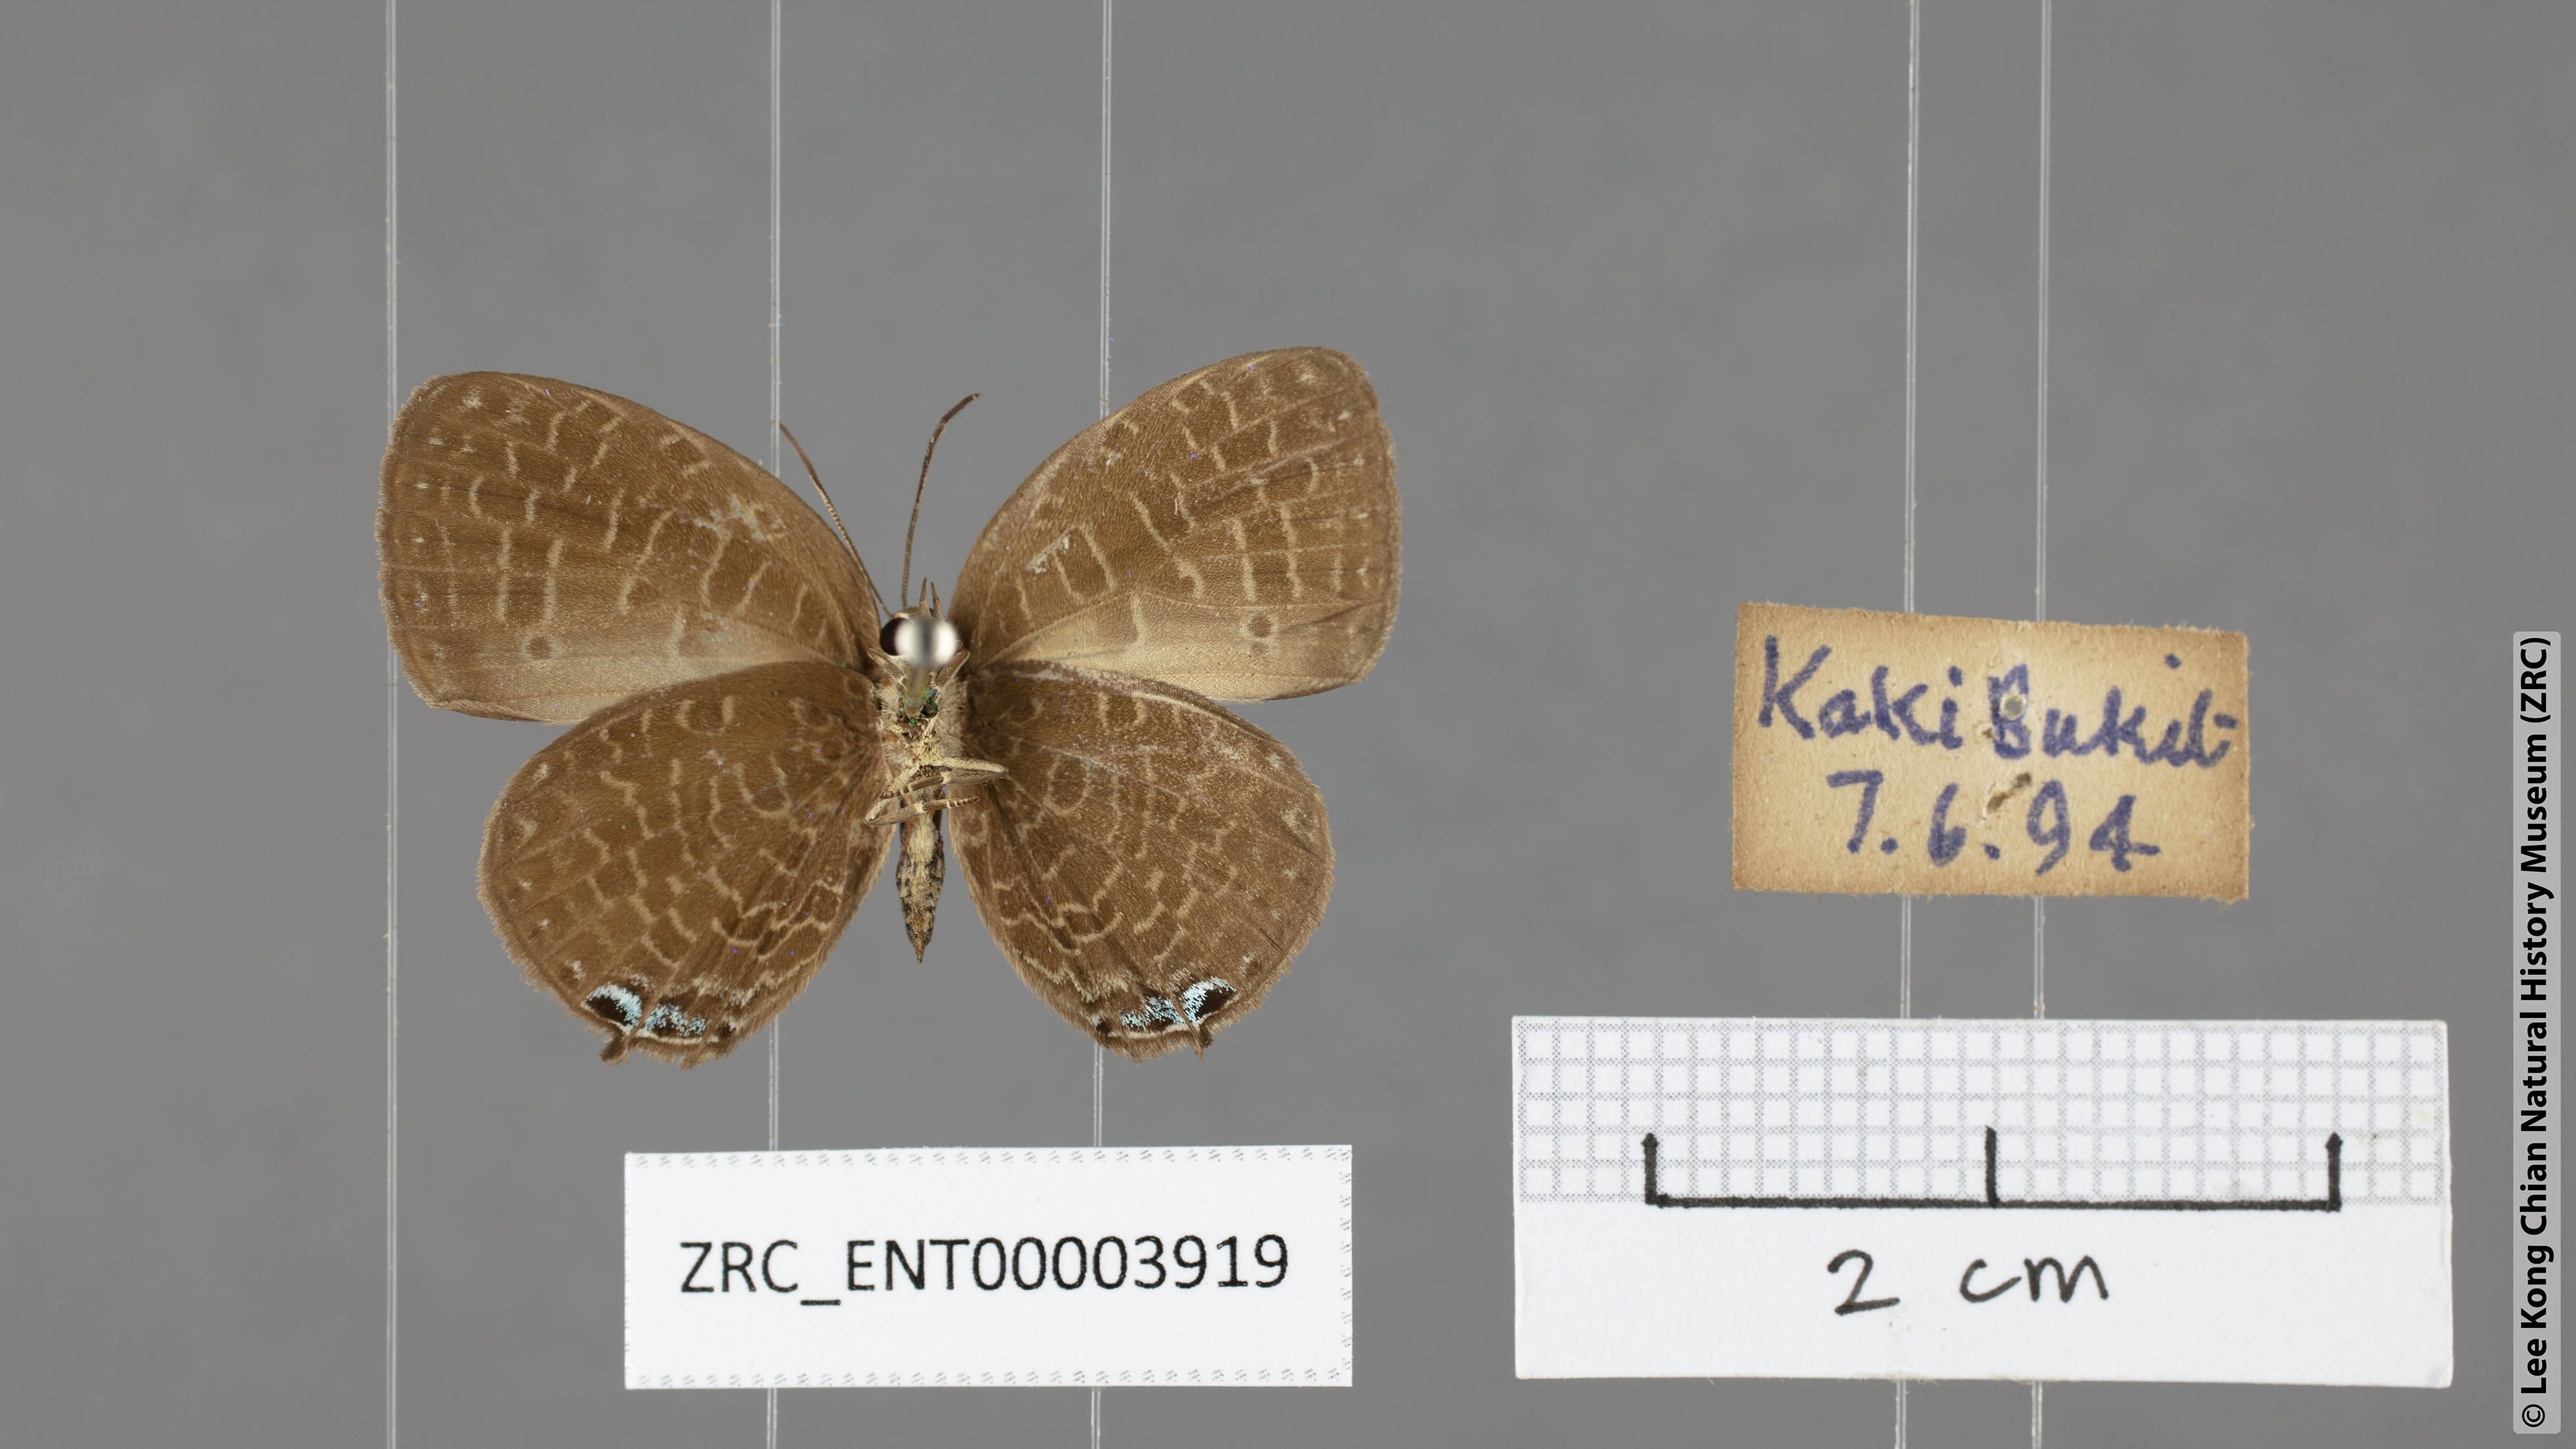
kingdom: Animalia
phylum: Arthropoda
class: Insecta
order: Lepidoptera
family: Lycaenidae
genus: Arhopala
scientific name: Arhopala democritus
